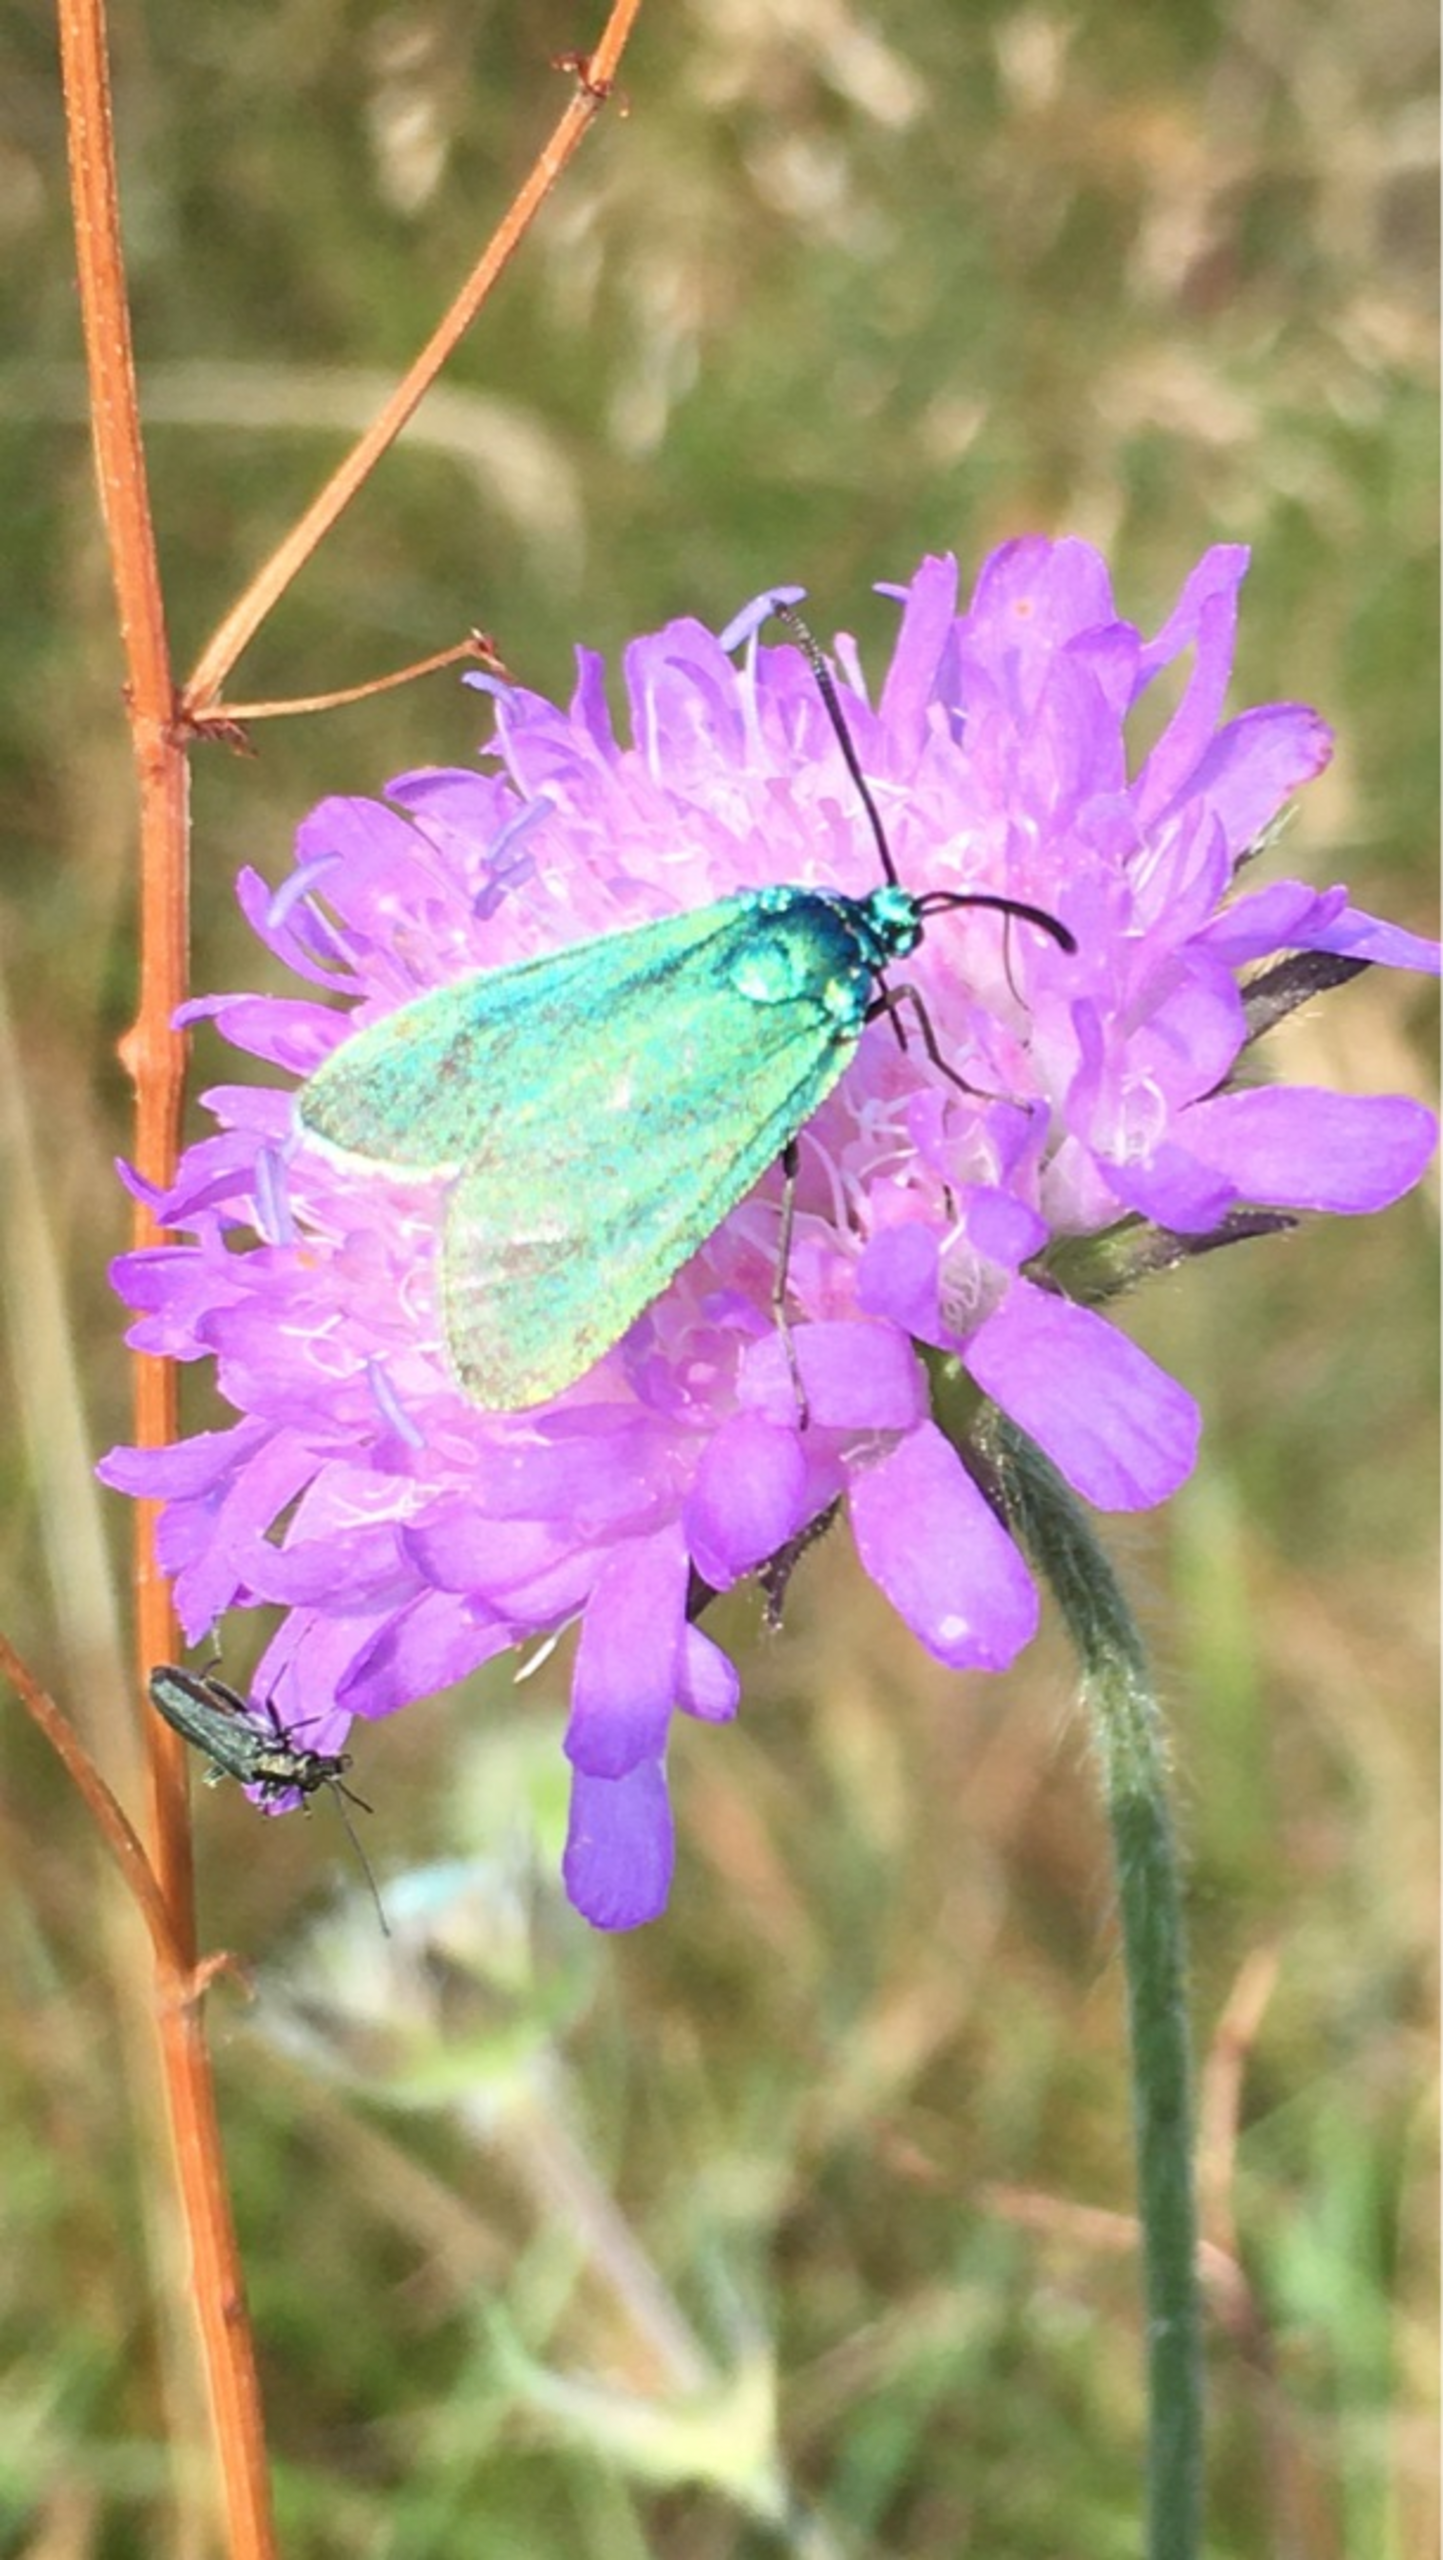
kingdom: Animalia
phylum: Arthropoda
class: Insecta
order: Lepidoptera
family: Zygaenidae
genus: Adscita
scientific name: Adscita statices
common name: Metalvinge
